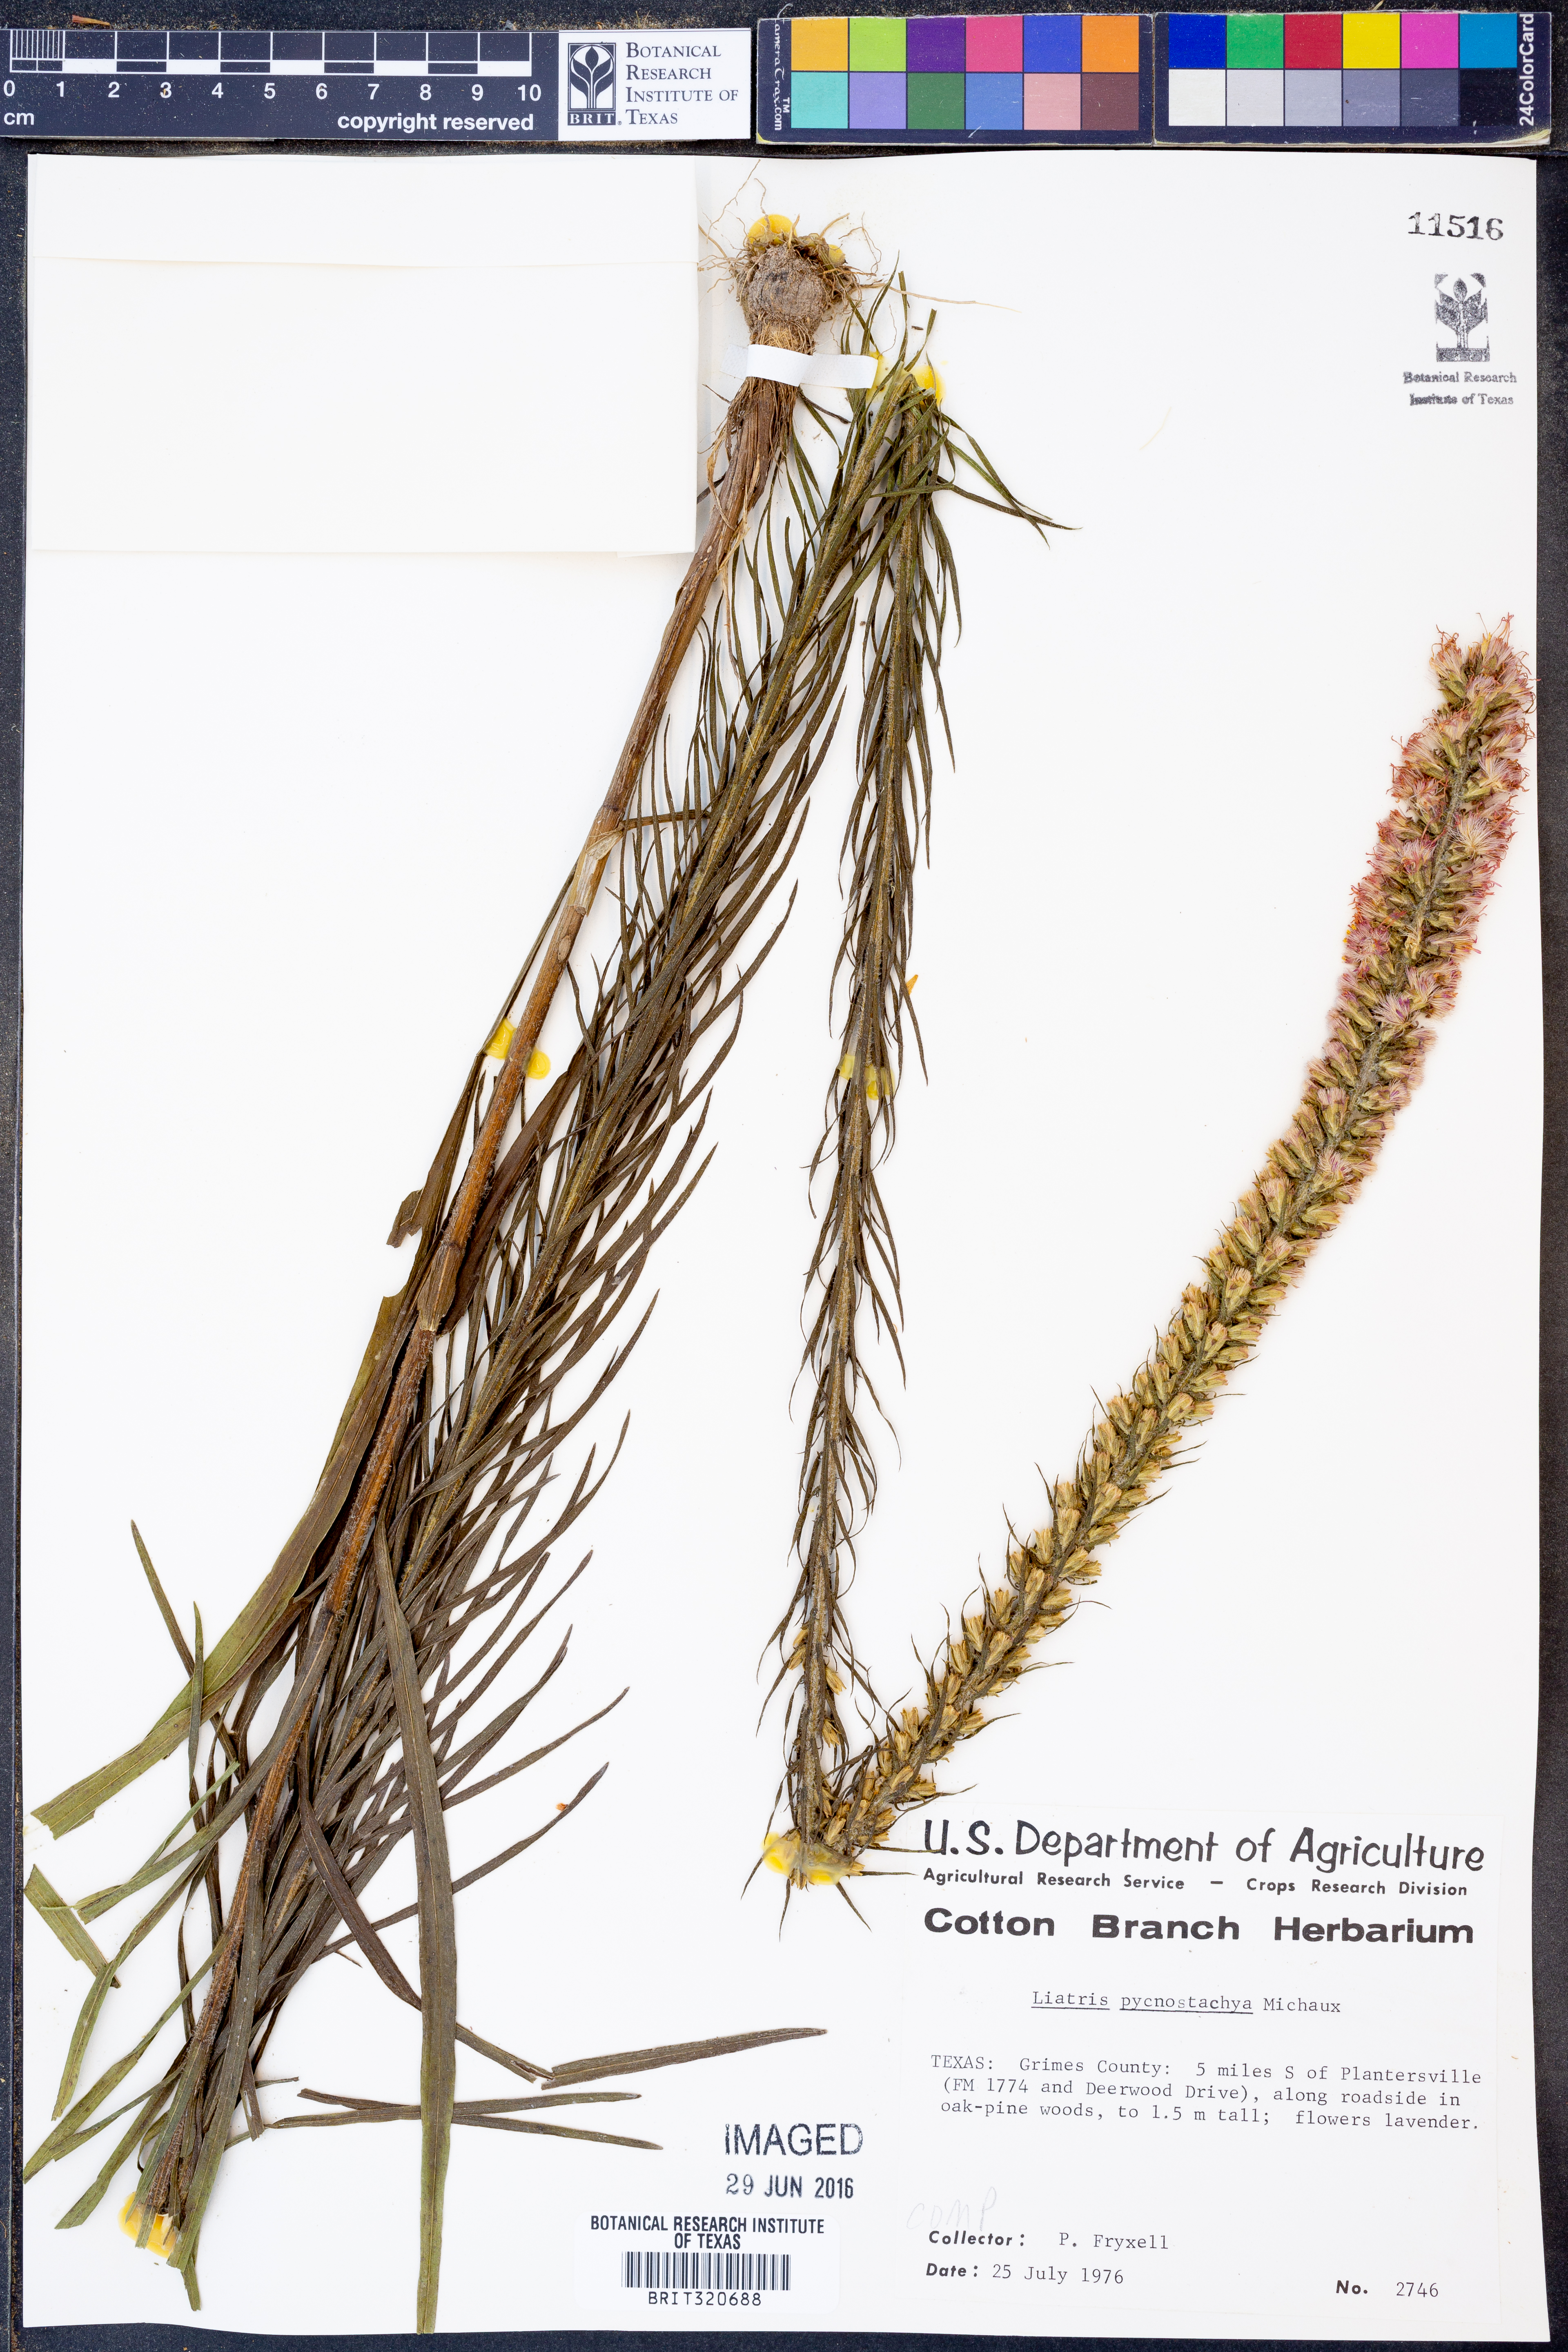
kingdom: Plantae
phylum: Tracheophyta
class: Magnoliopsida
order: Asterales
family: Asteraceae
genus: Liatris
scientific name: Liatris pycnostachya
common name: Cattail gayfeather
